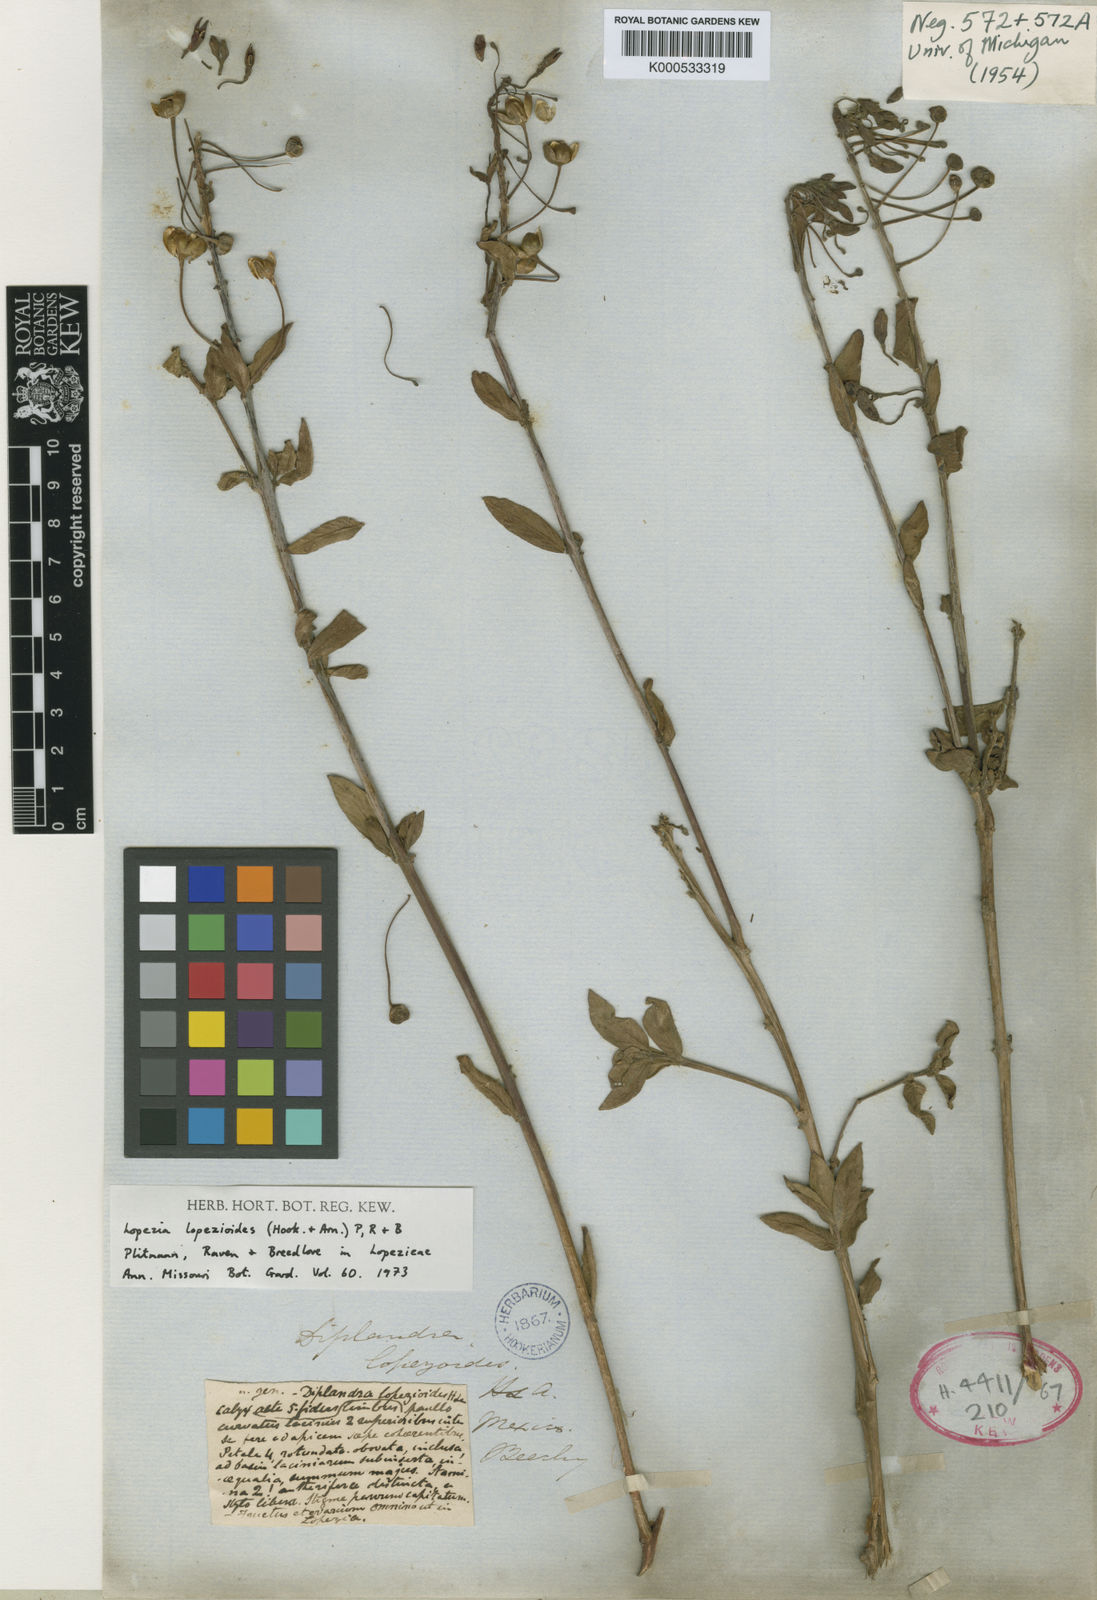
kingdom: Plantae
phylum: Tracheophyta
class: Magnoliopsida
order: Myrtales
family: Onagraceae
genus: Lopezia
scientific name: Lopezia lopezioides
